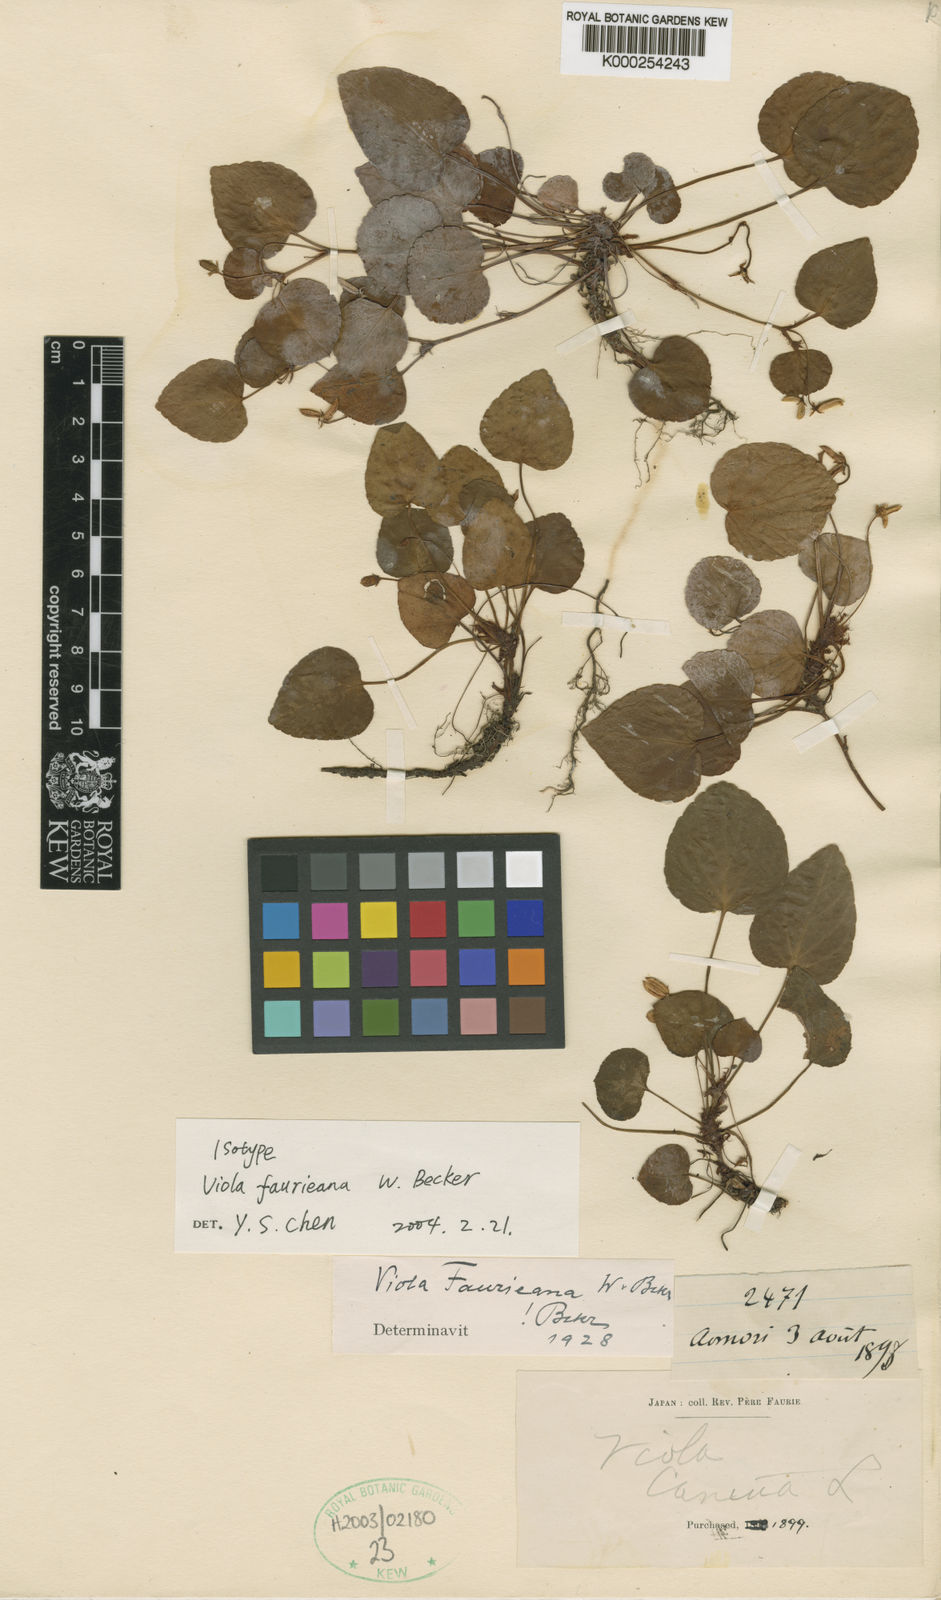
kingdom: Plantae
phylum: Tracheophyta
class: Magnoliopsida
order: Malpighiales
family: Violaceae
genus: Viola
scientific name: Viola faurieana
